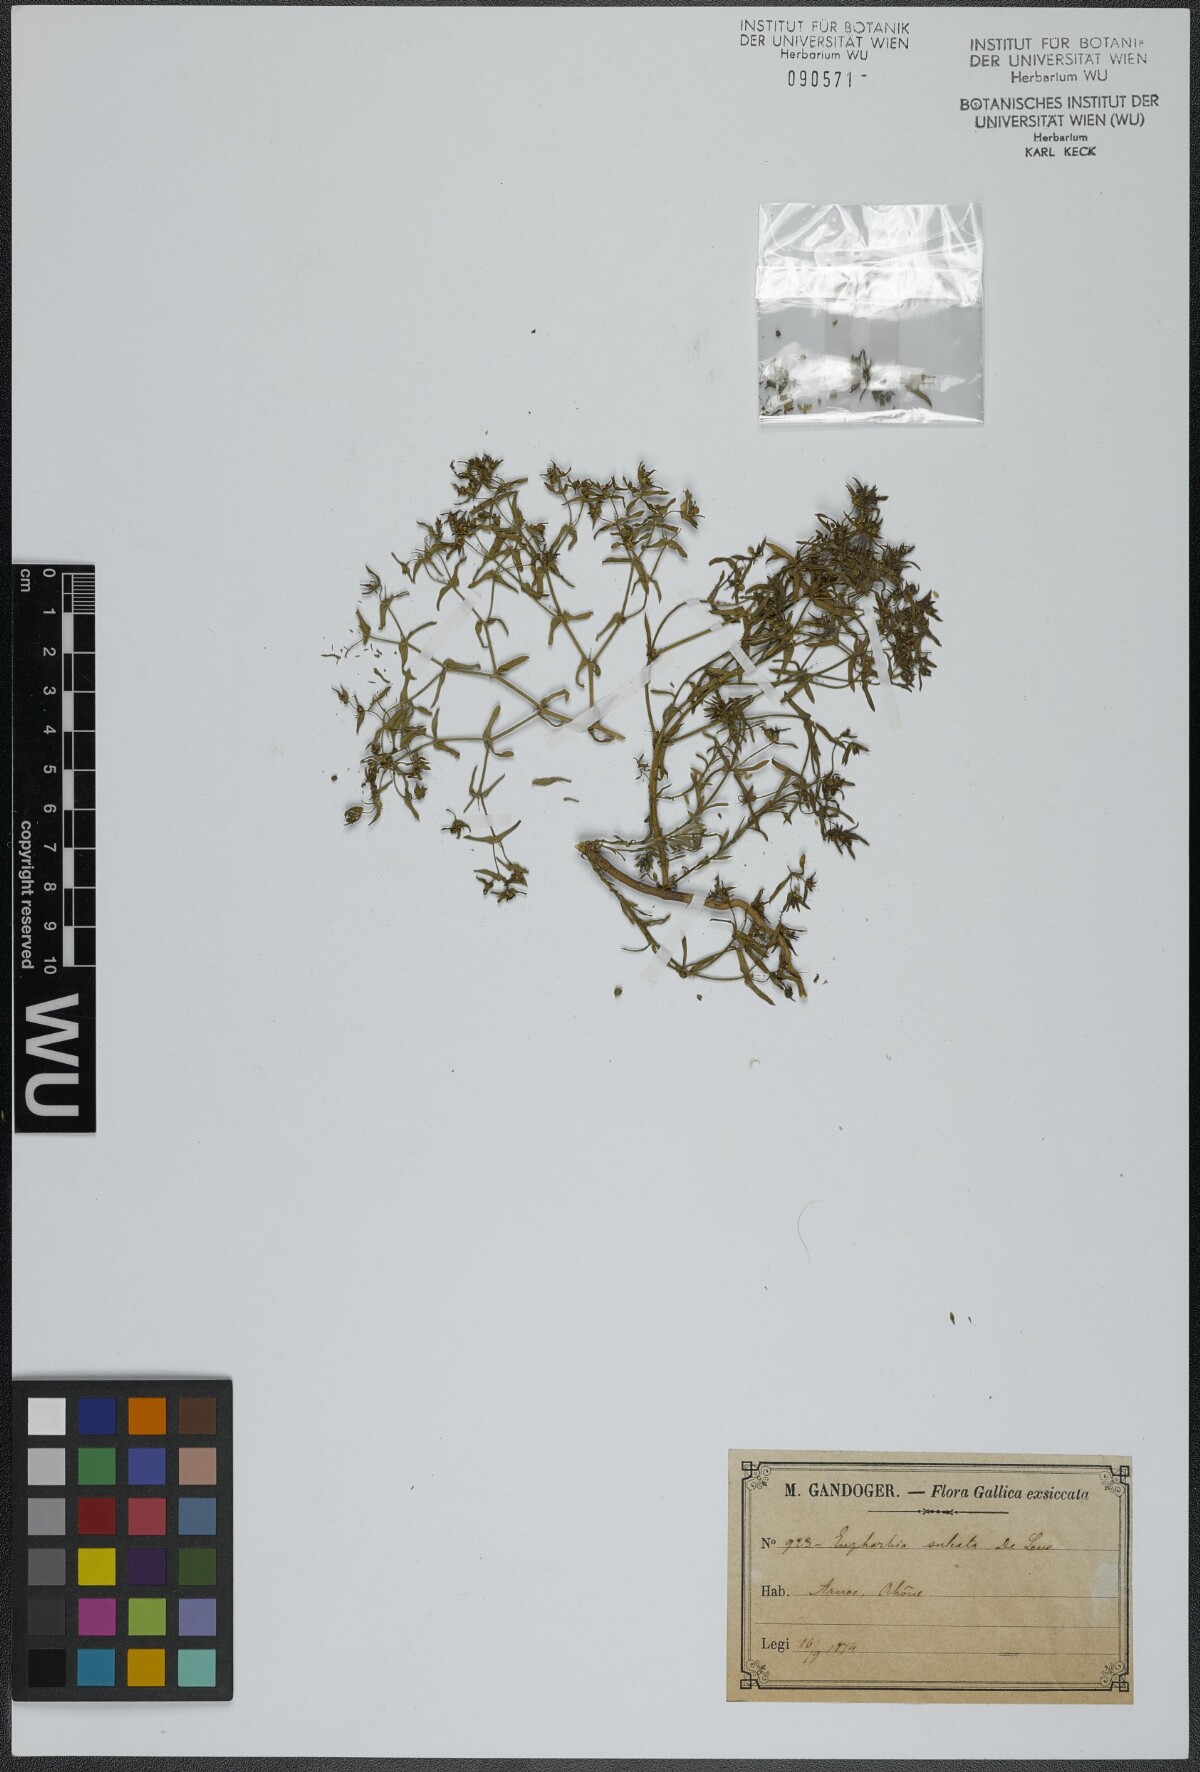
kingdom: Plantae
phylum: Tracheophyta
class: Magnoliopsida
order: Malpighiales
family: Euphorbiaceae
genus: Euphorbia
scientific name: Euphorbia sulcata
